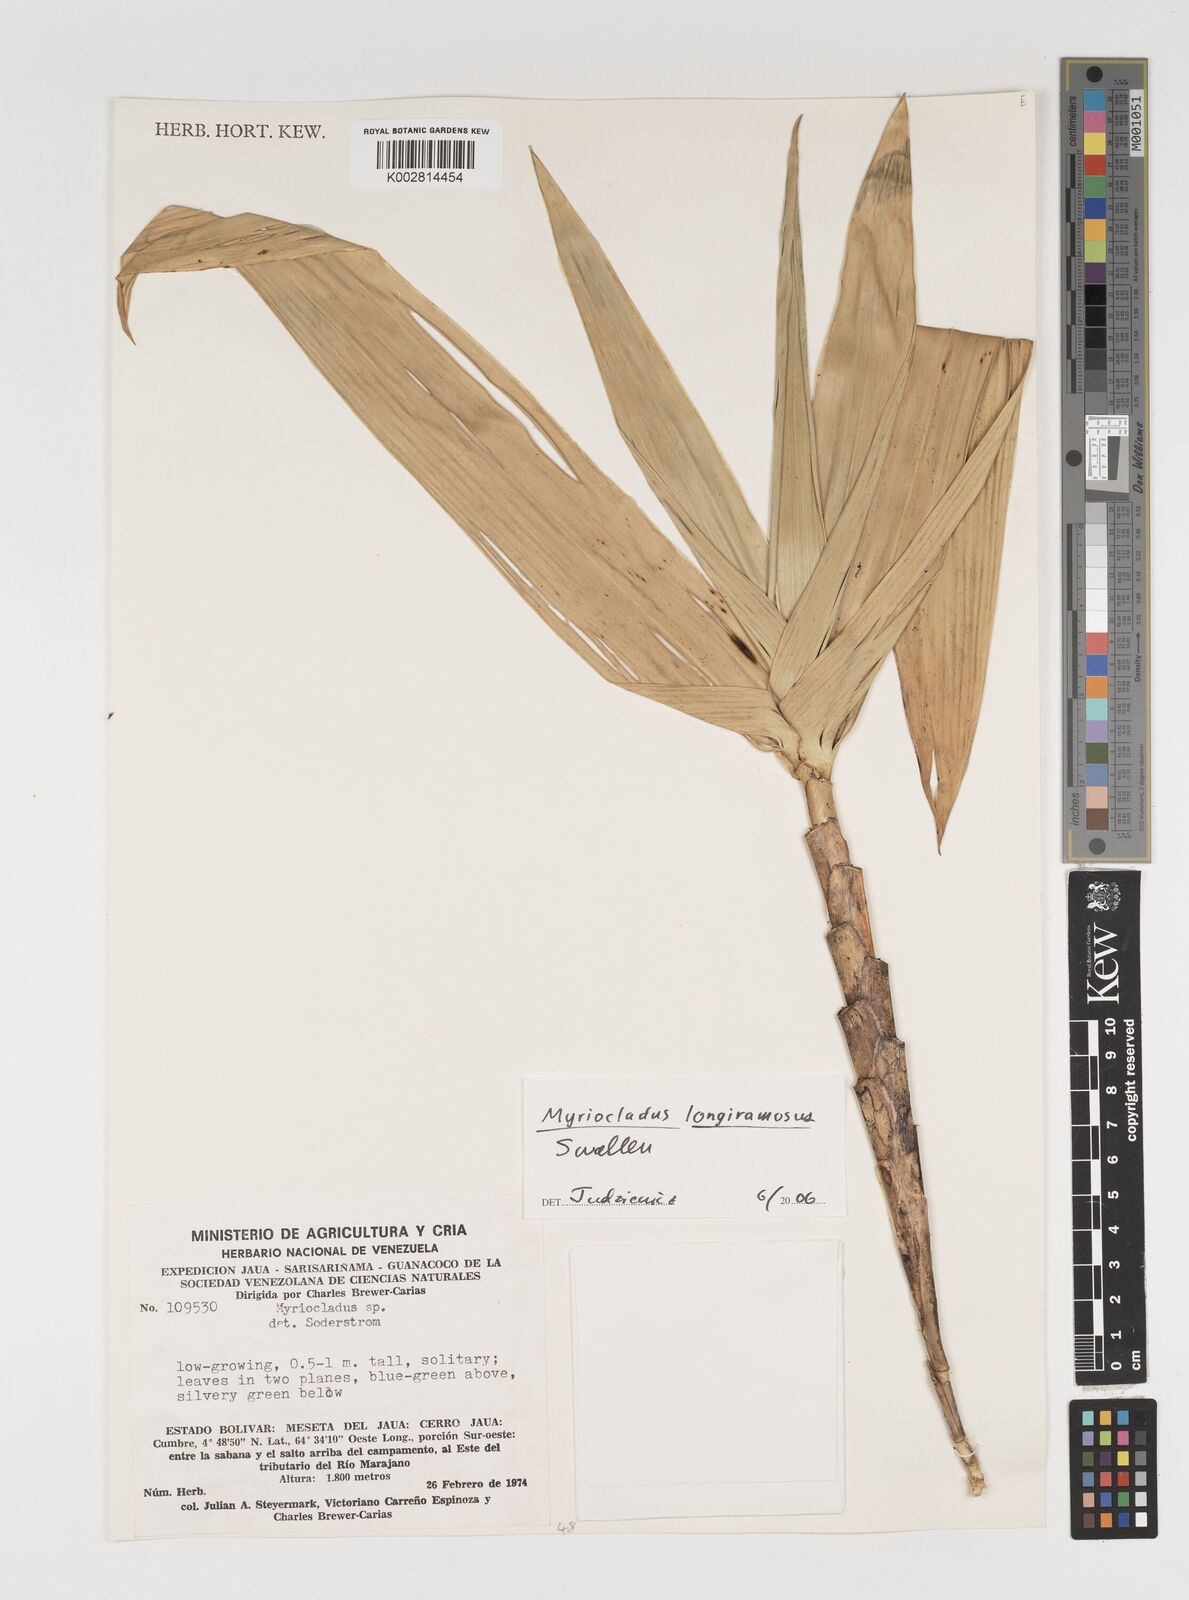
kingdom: Plantae
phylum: Tracheophyta
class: Liliopsida
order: Poales
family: Poaceae
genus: Myriocladus
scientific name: Myriocladus longiramosus
